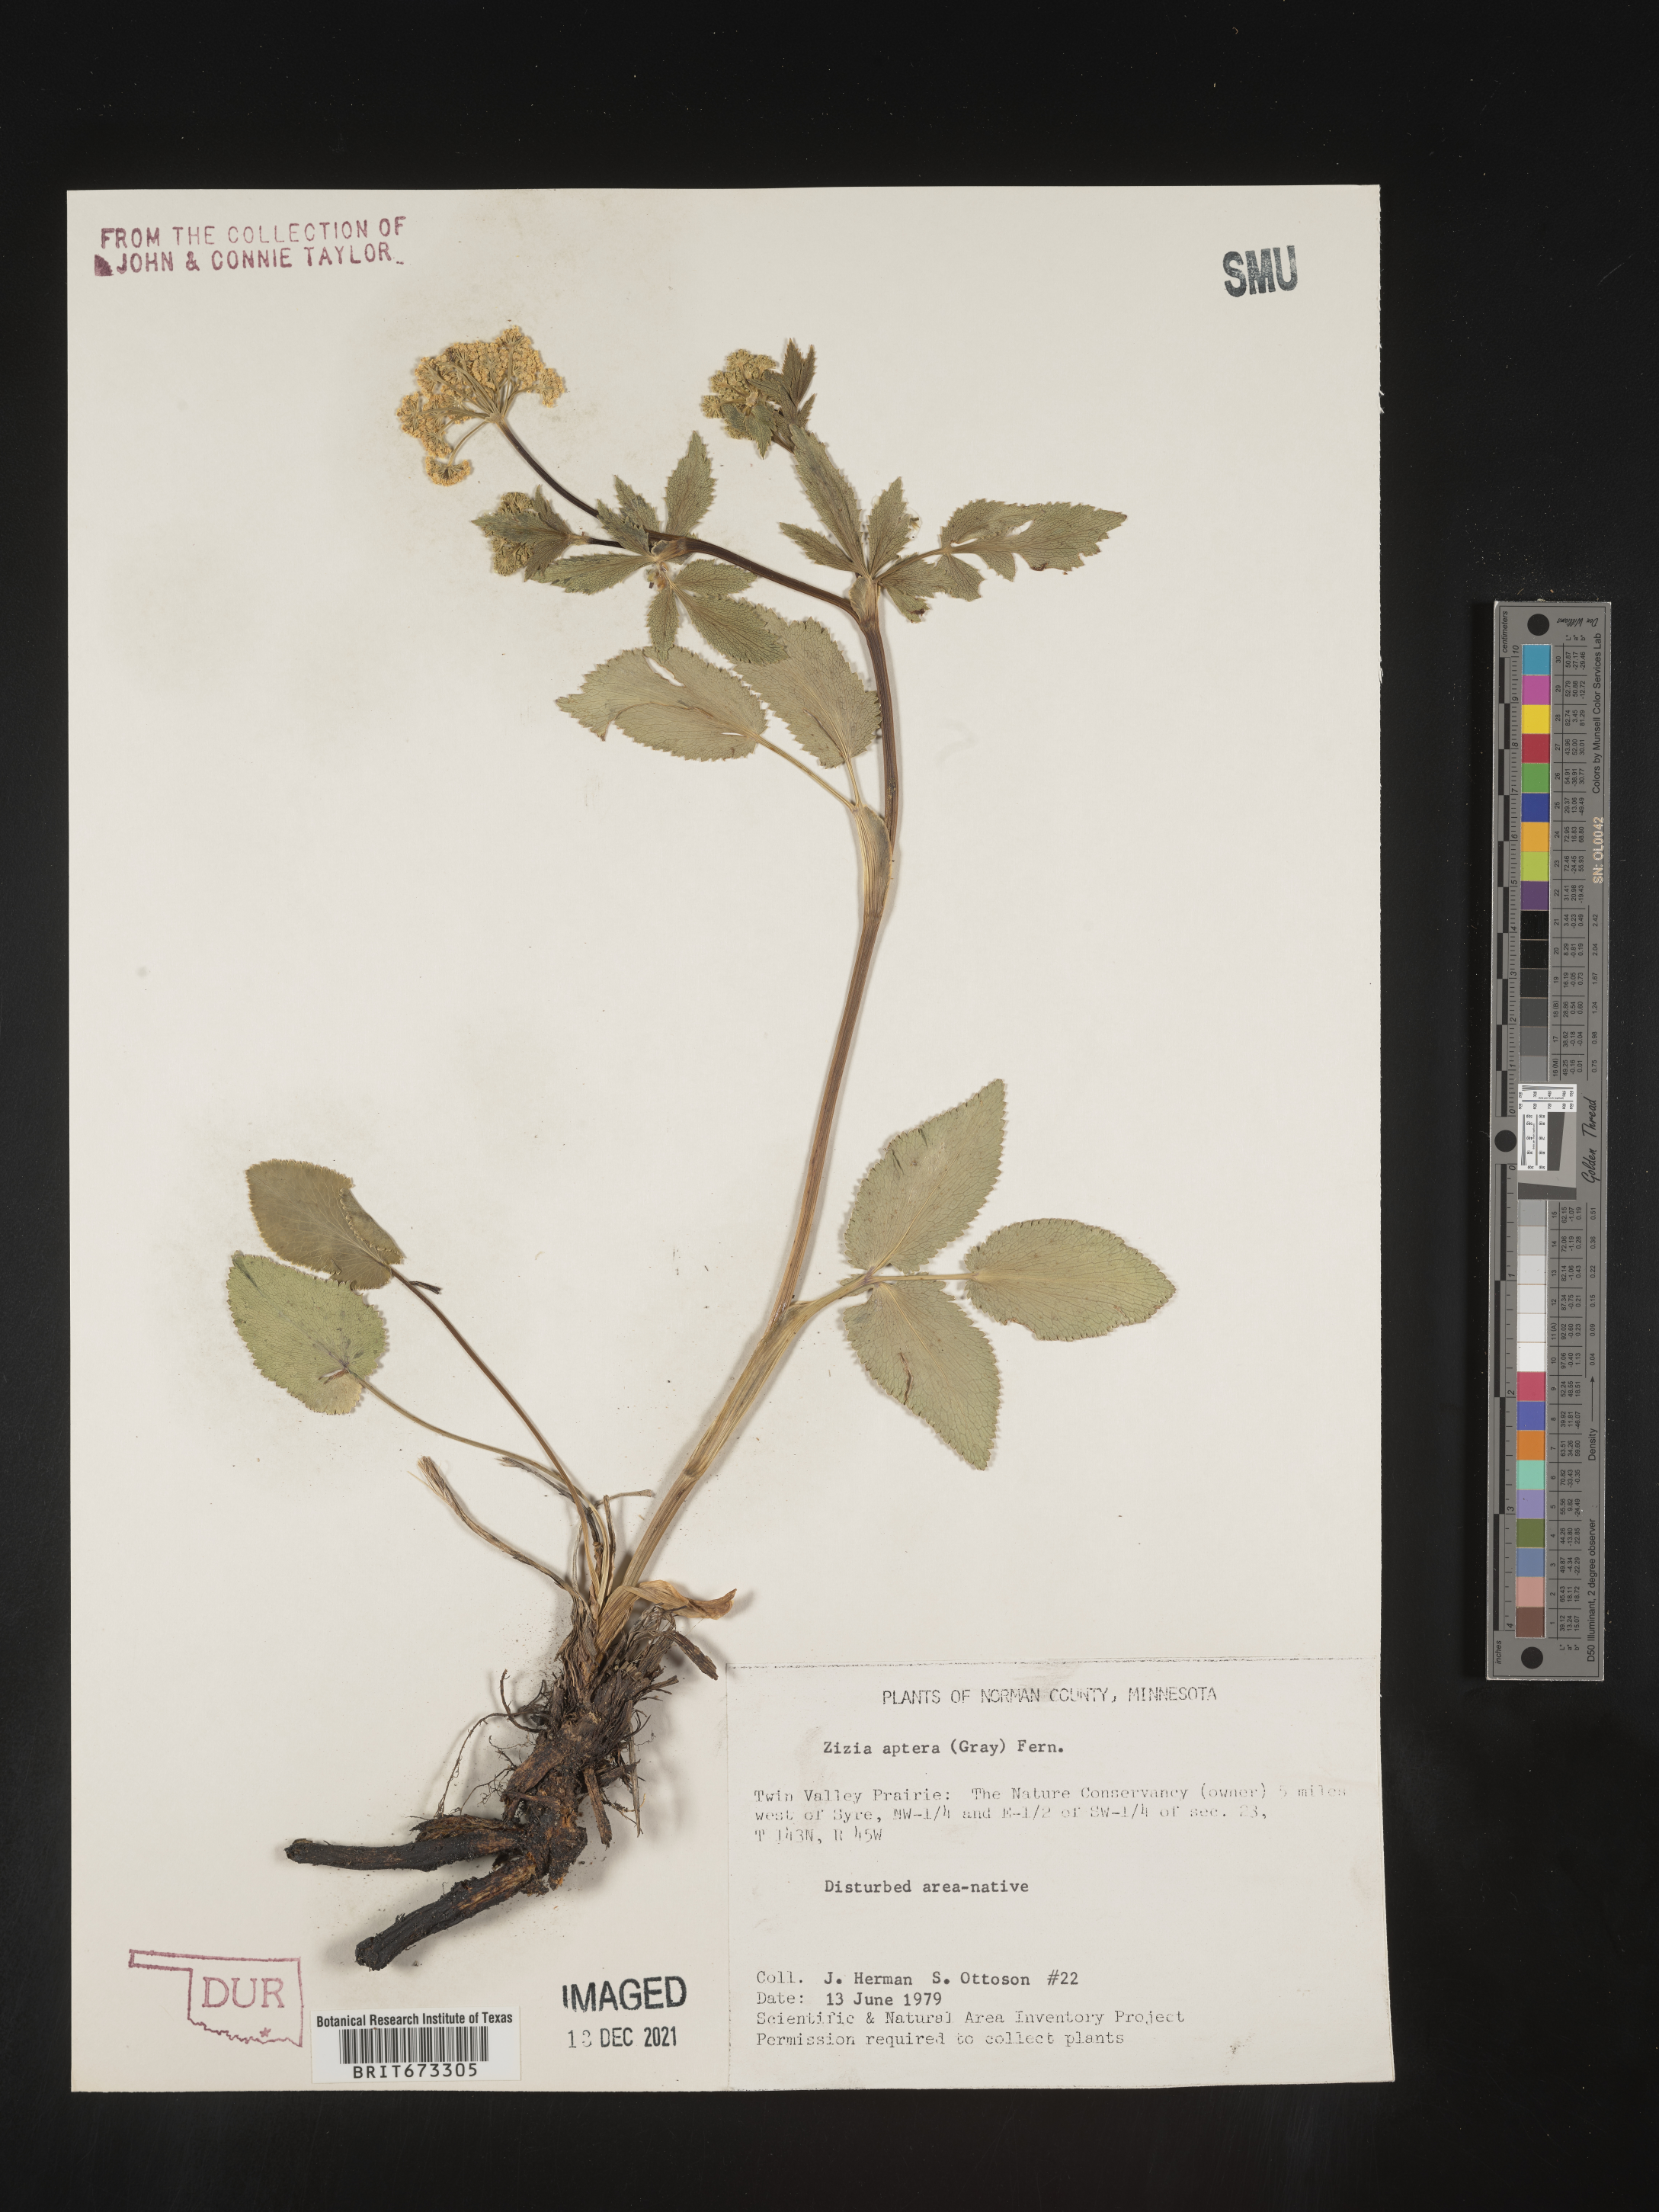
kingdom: Plantae
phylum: Tracheophyta
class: Magnoliopsida
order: Apiales
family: Apiaceae
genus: Zizia
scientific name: Zizia aptera
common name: Heart-leaved alexanders
